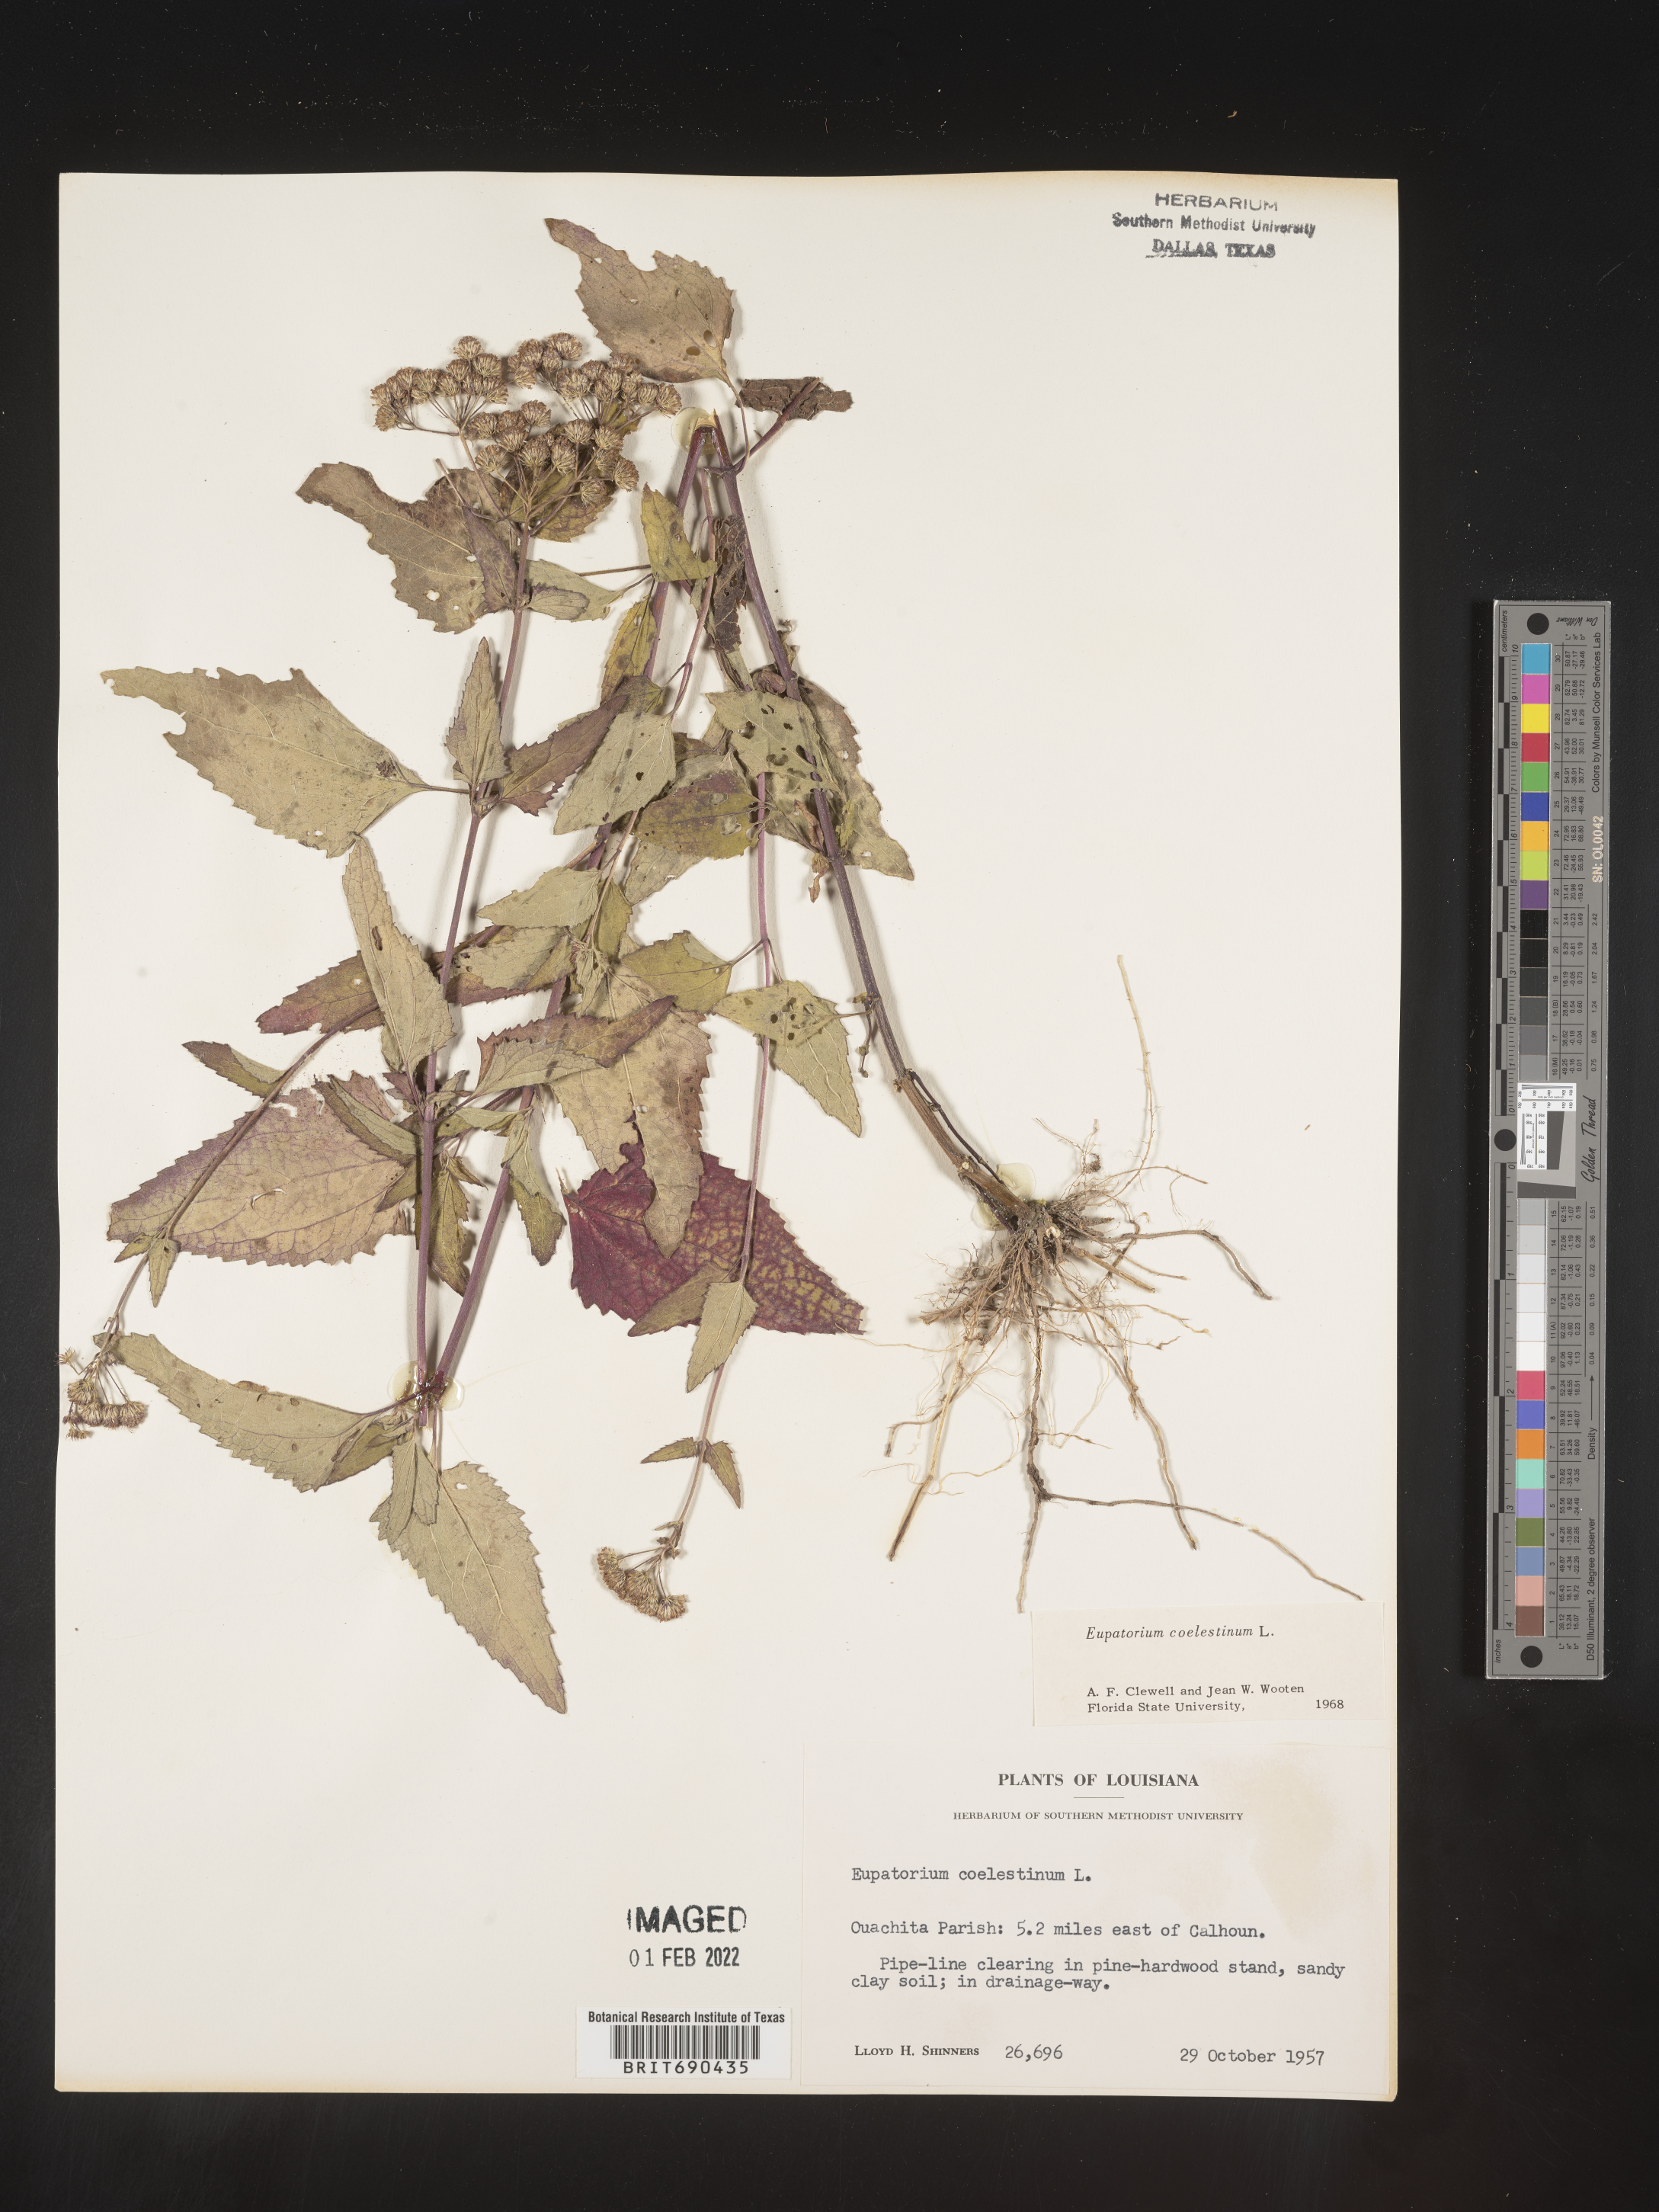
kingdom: Plantae
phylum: Tracheophyta
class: Magnoliopsida
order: Asterales
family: Asteraceae
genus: Conoclinium
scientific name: Conoclinium coelestinum
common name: Blue mistflower
